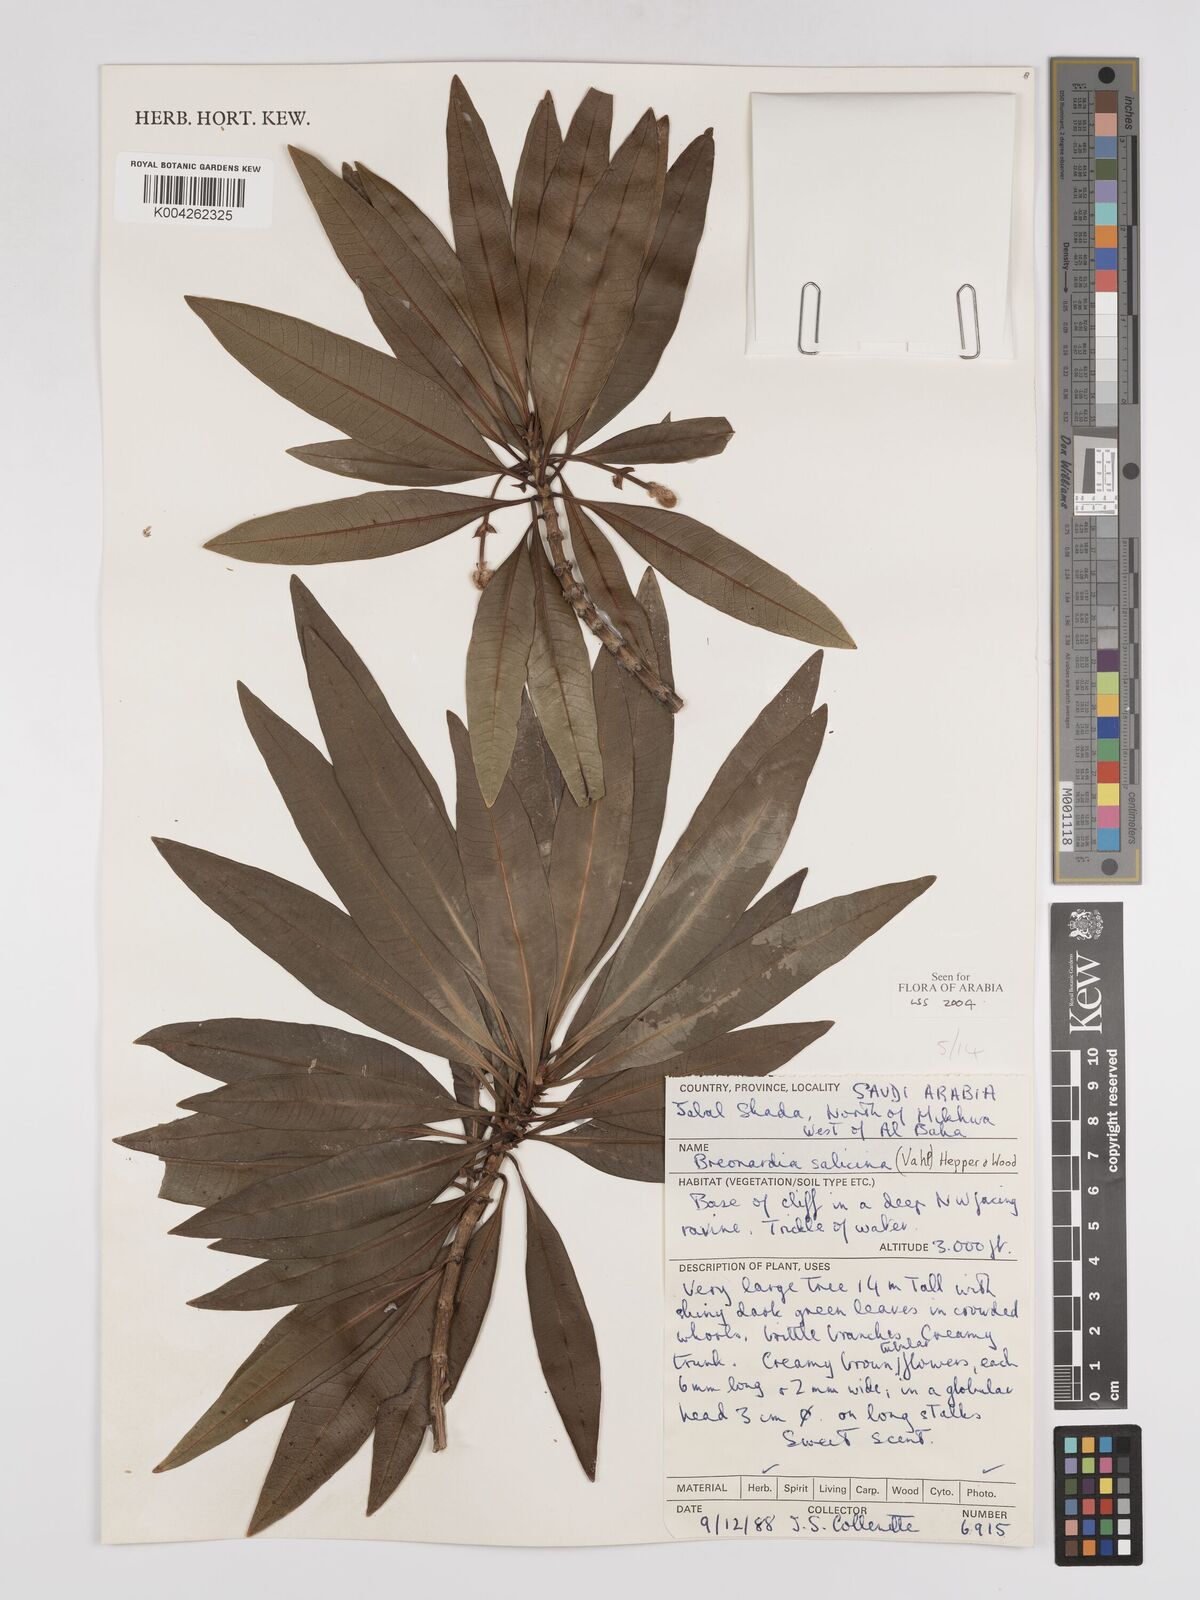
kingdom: Plantae
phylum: Tracheophyta
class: Magnoliopsida
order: Gentianales
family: Rubiaceae
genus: Breonadia
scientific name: Breonadia salicina
